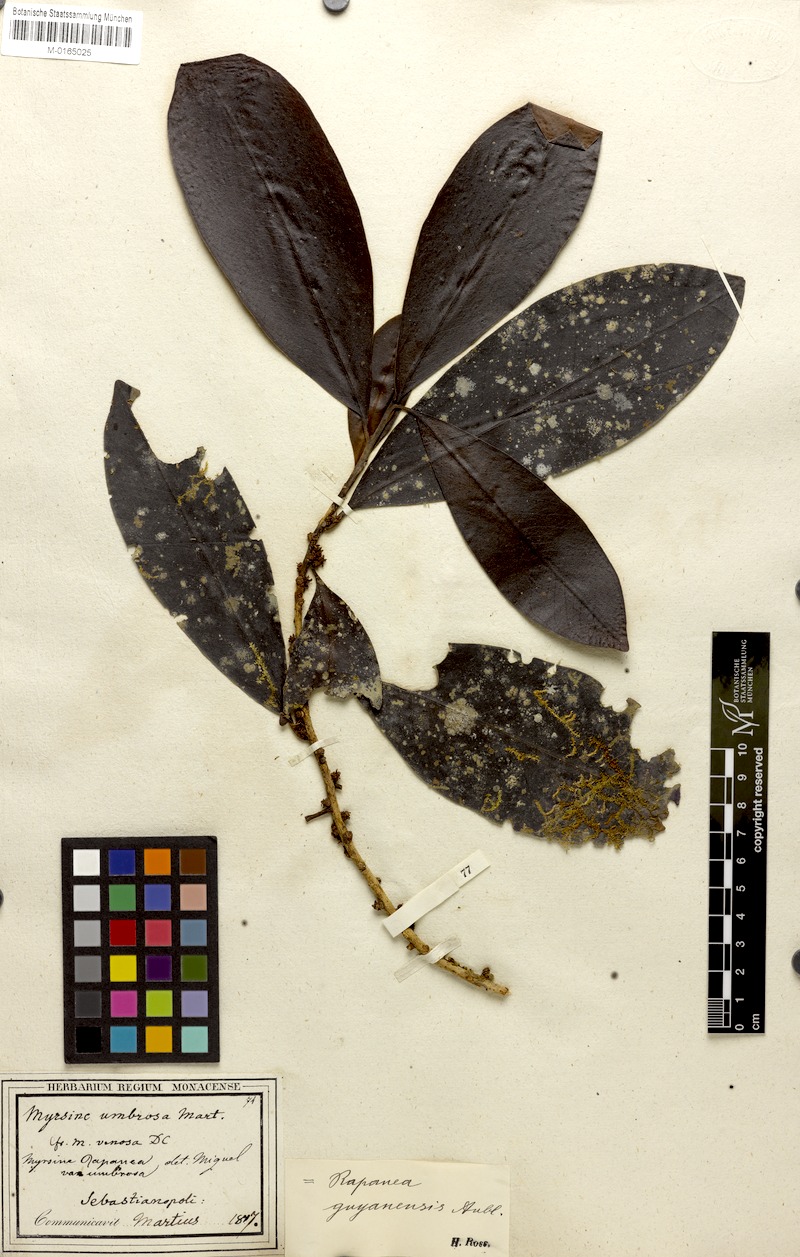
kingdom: Plantae
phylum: Tracheophyta
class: Magnoliopsida
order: Ericales
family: Primulaceae
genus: Myrsine
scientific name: Myrsine umbellata
